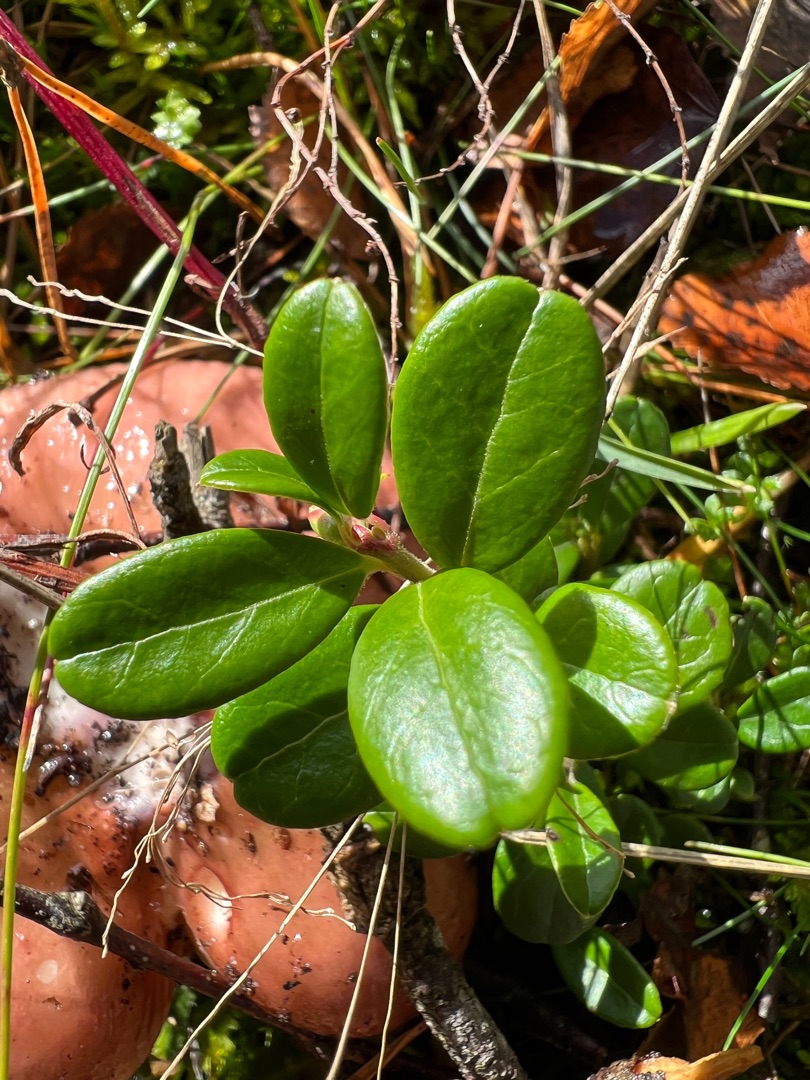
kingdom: Plantae
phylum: Tracheophyta
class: Magnoliopsida
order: Ericales
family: Ericaceae
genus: Vaccinium
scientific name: Vaccinium vitis-idaea
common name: Tyttebær
